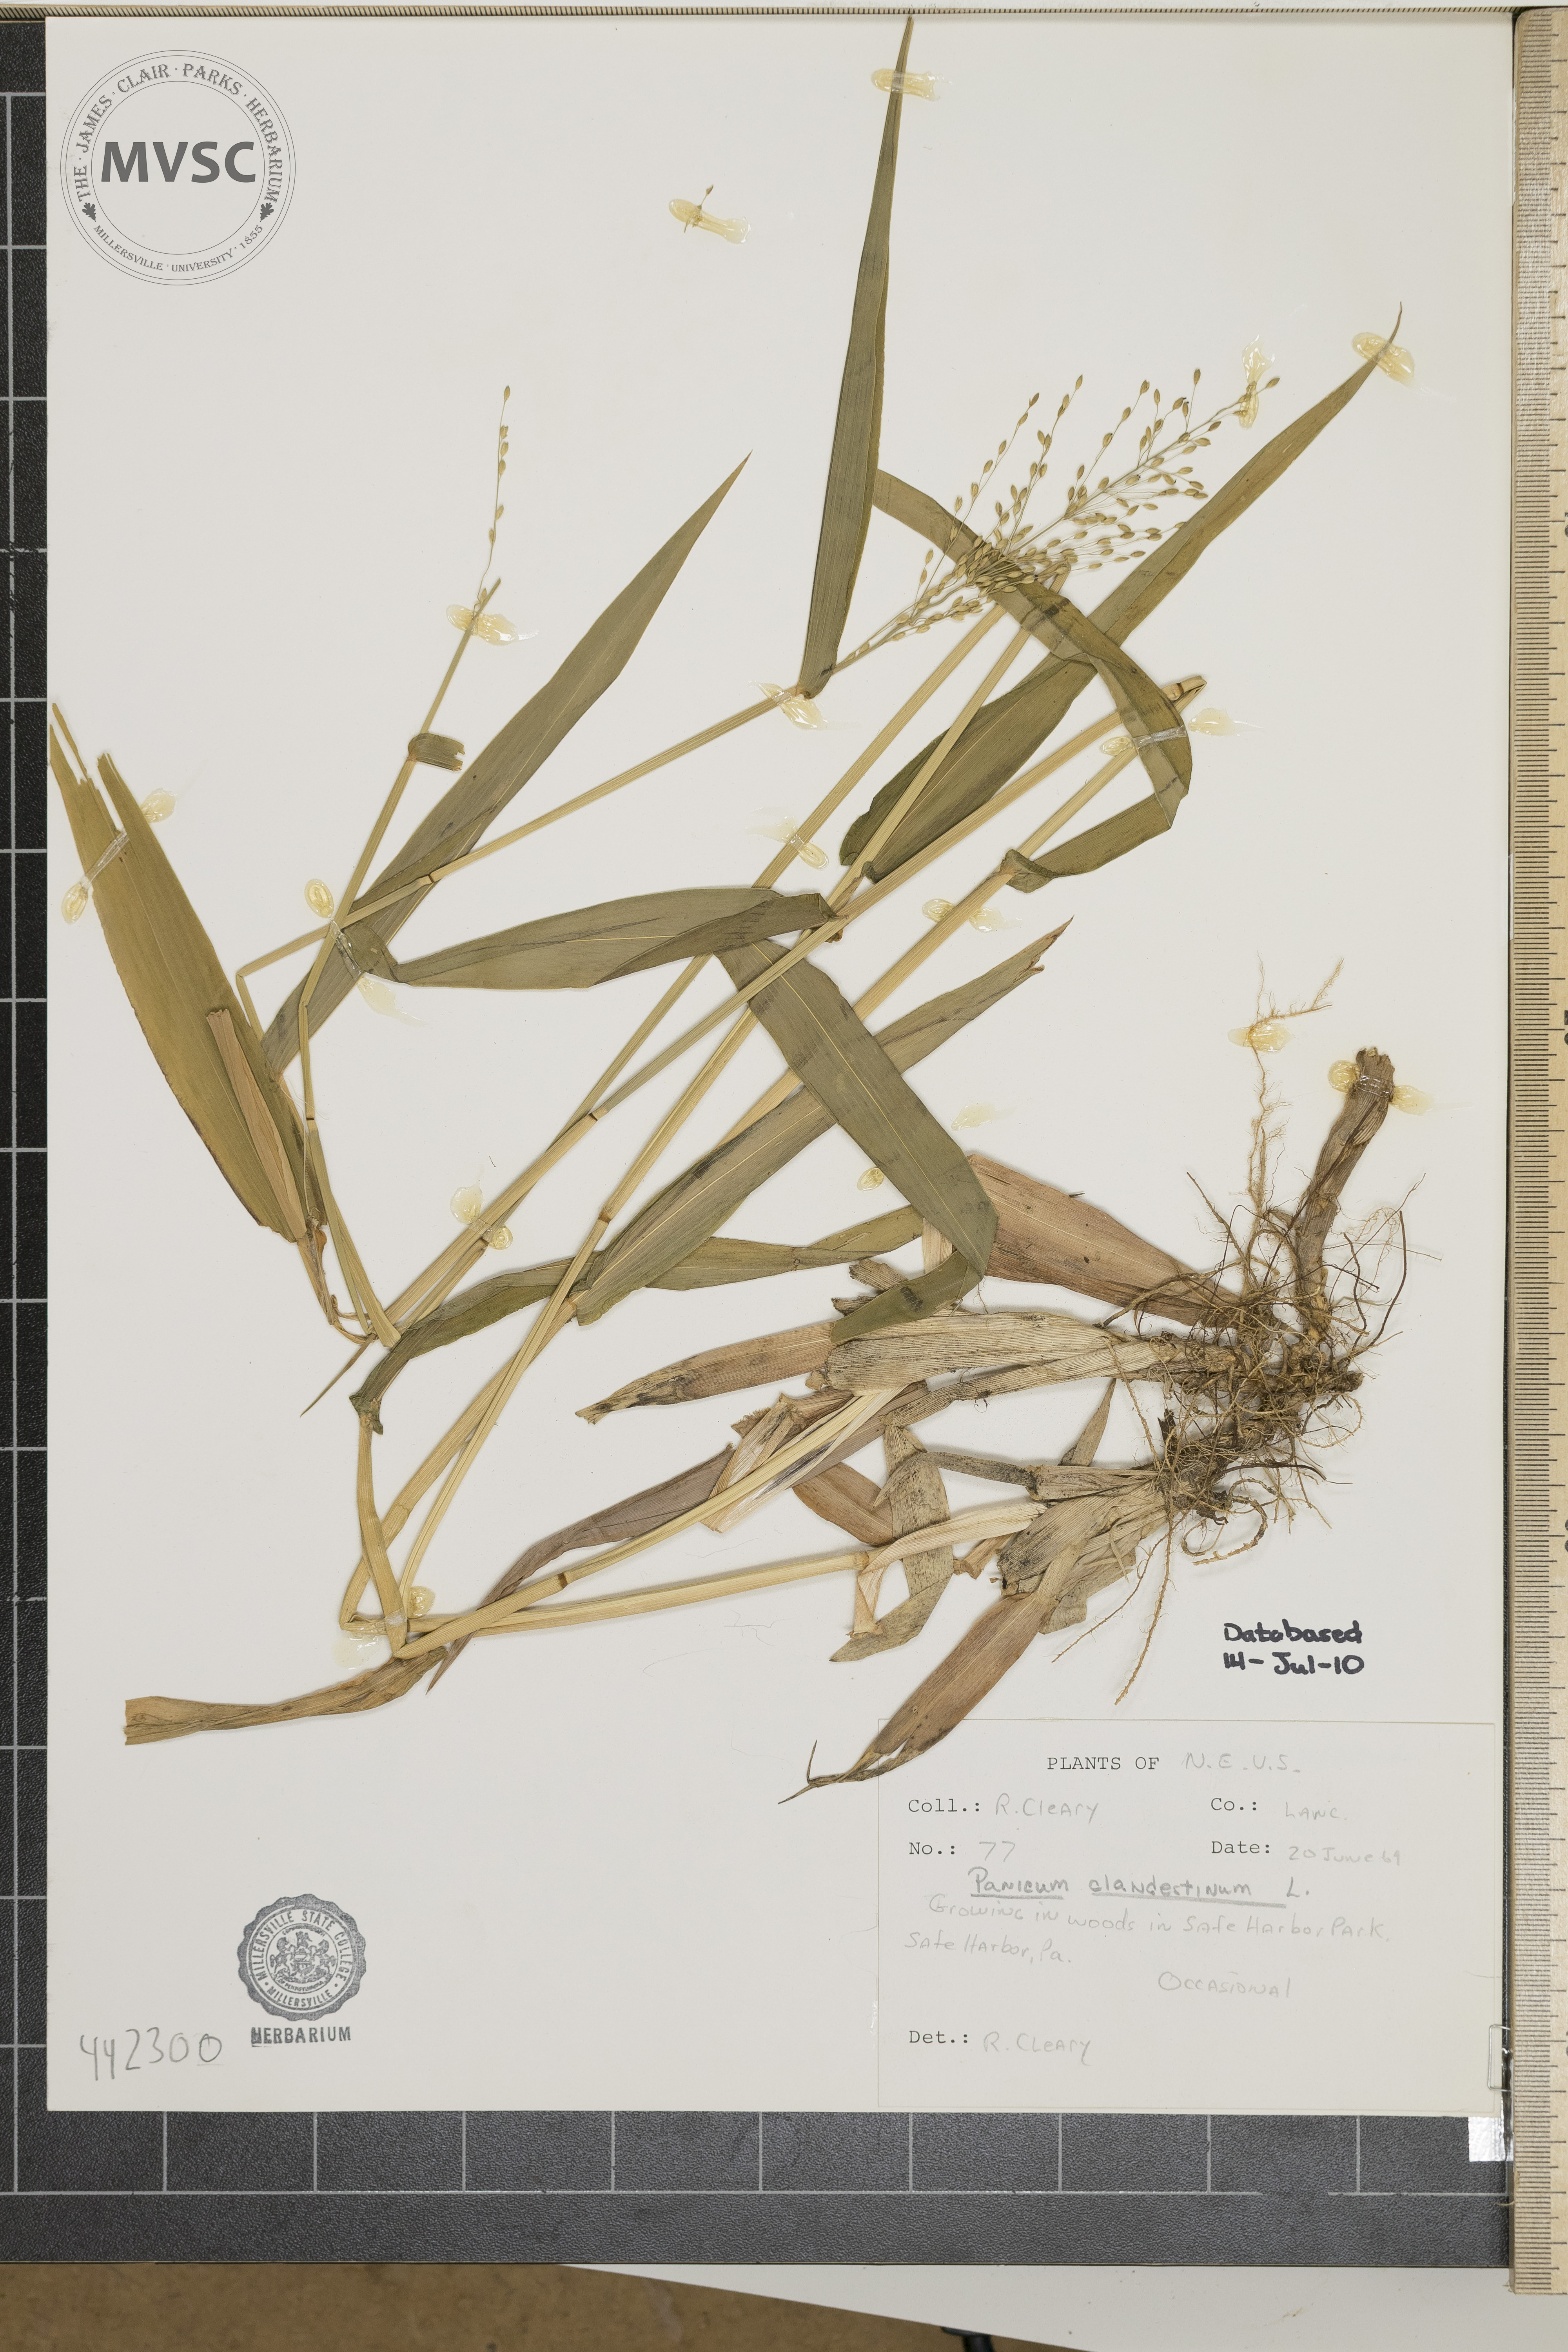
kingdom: Plantae
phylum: Tracheophyta
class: Liliopsida
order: Poales
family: Poaceae
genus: Dichanthelium
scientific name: Dichanthelium clandestinum
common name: Deer-tongue grass
